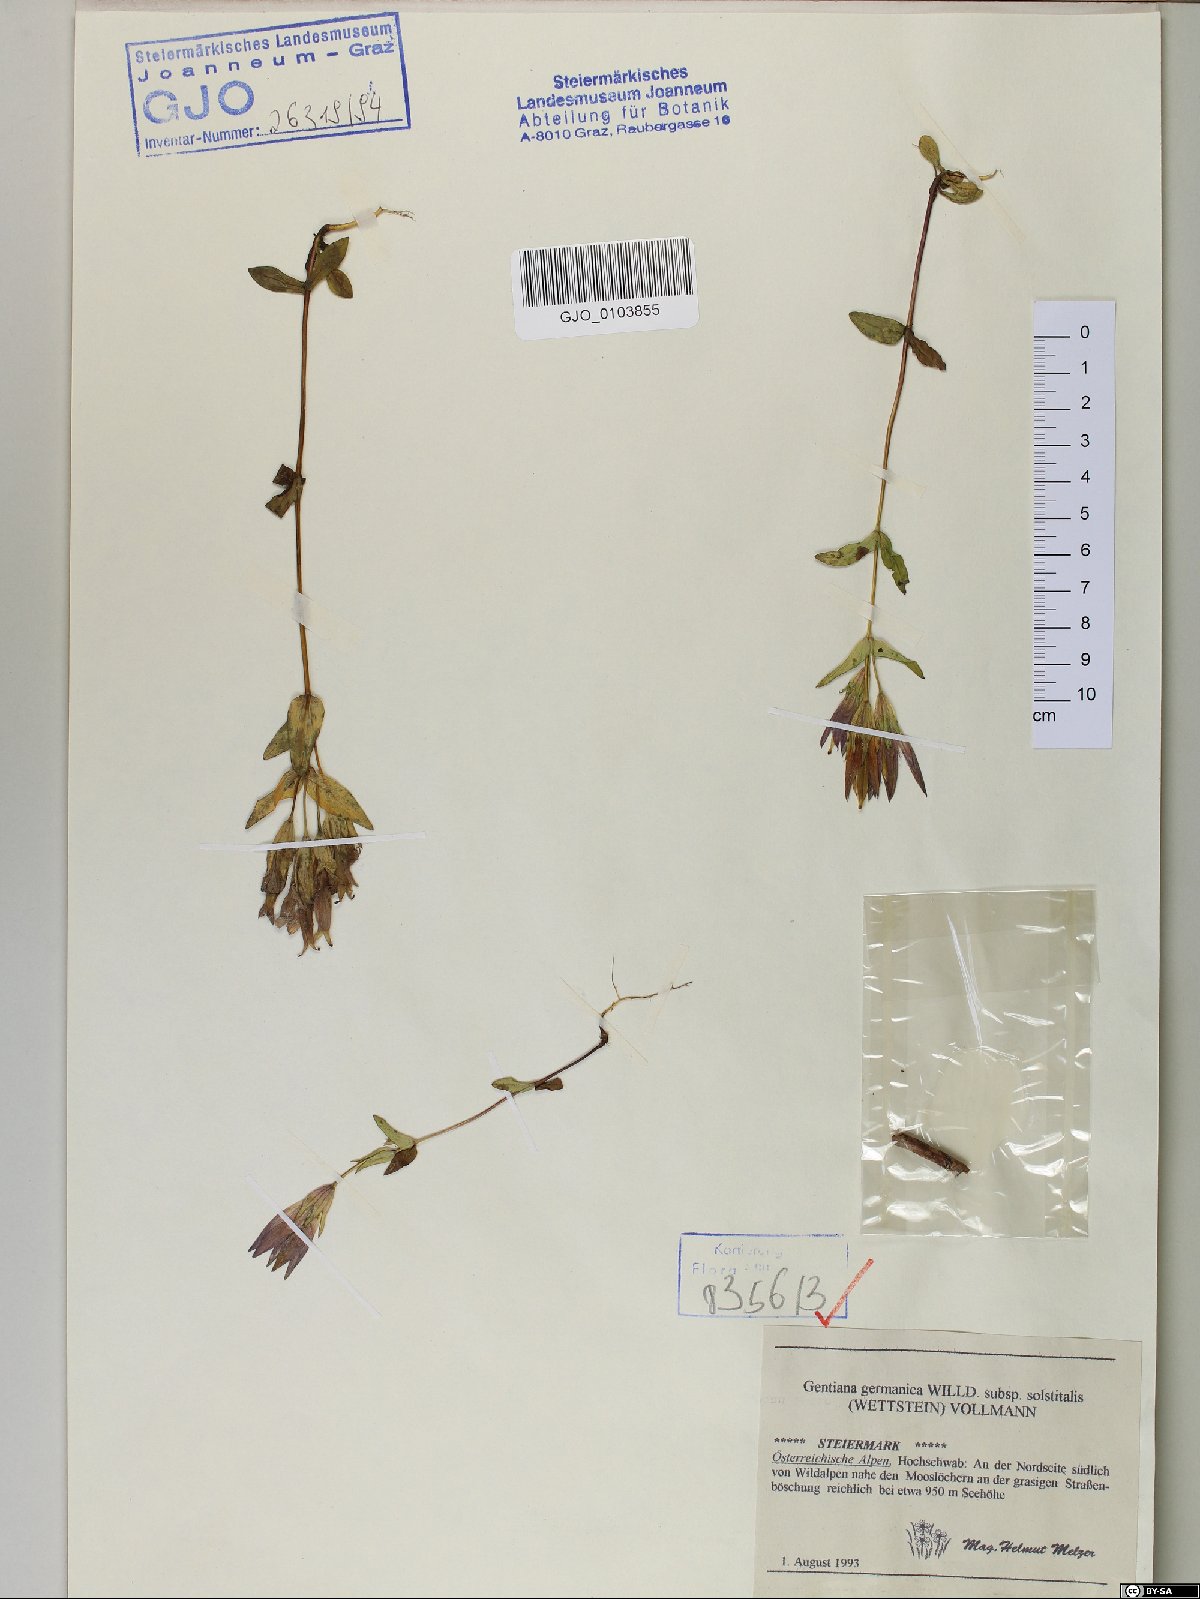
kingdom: Plantae
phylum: Tracheophyta
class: Magnoliopsida
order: Gentianales
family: Gentianaceae
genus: Gentianella
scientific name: Gentianella germanica
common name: Chiltern-gentian
